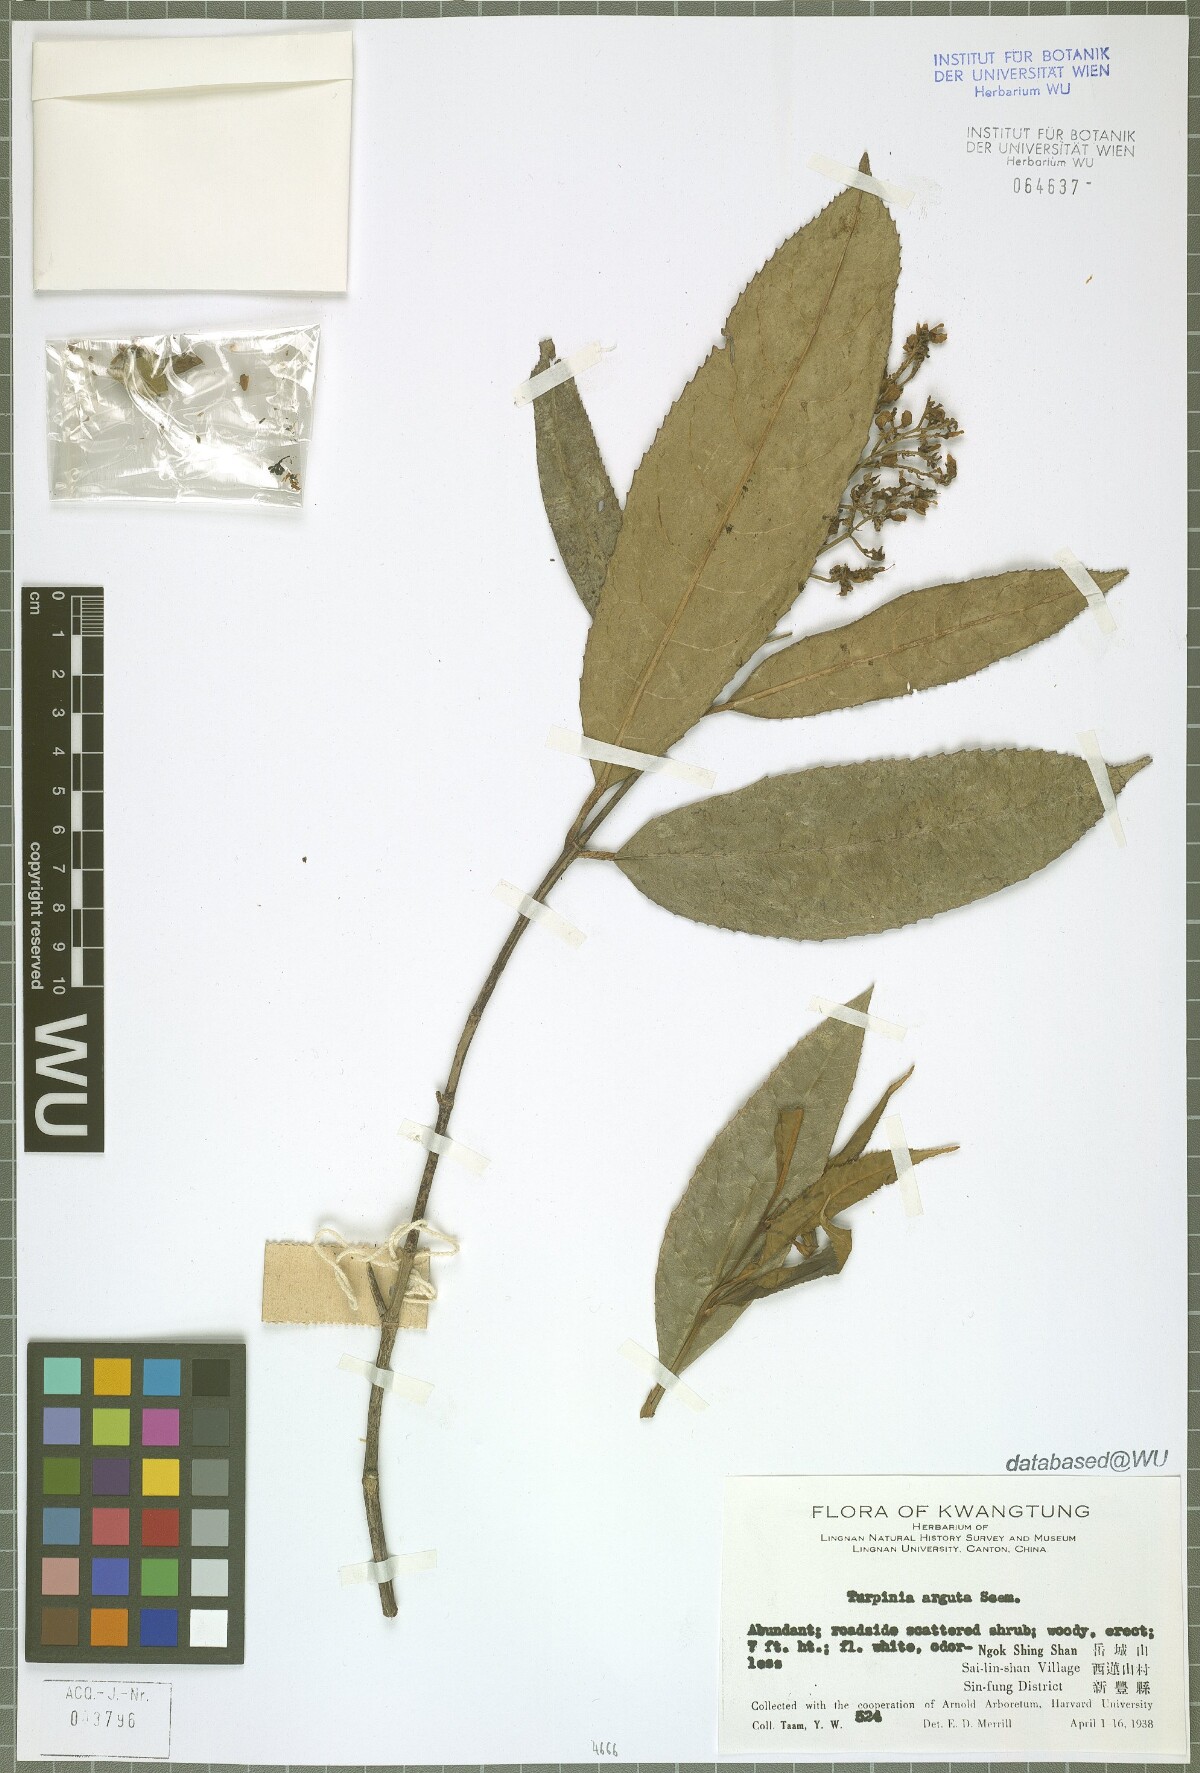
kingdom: Plantae
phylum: Tracheophyta
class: Magnoliopsida
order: Crossosomatales
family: Staphyleaceae
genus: Turpinia
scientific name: Turpinia arguta
